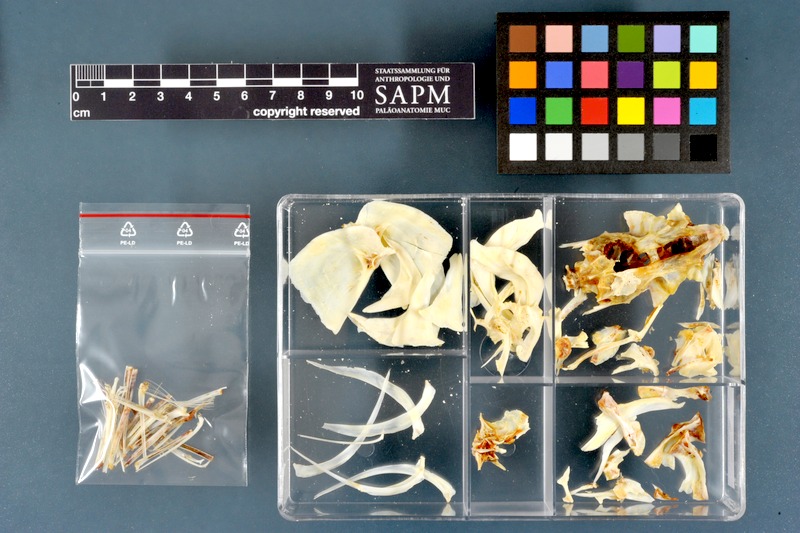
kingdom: Animalia
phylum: Chordata
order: Characiformes
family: Citharinidae
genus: Citharinus
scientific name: Citharinus latus
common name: Moon fish
